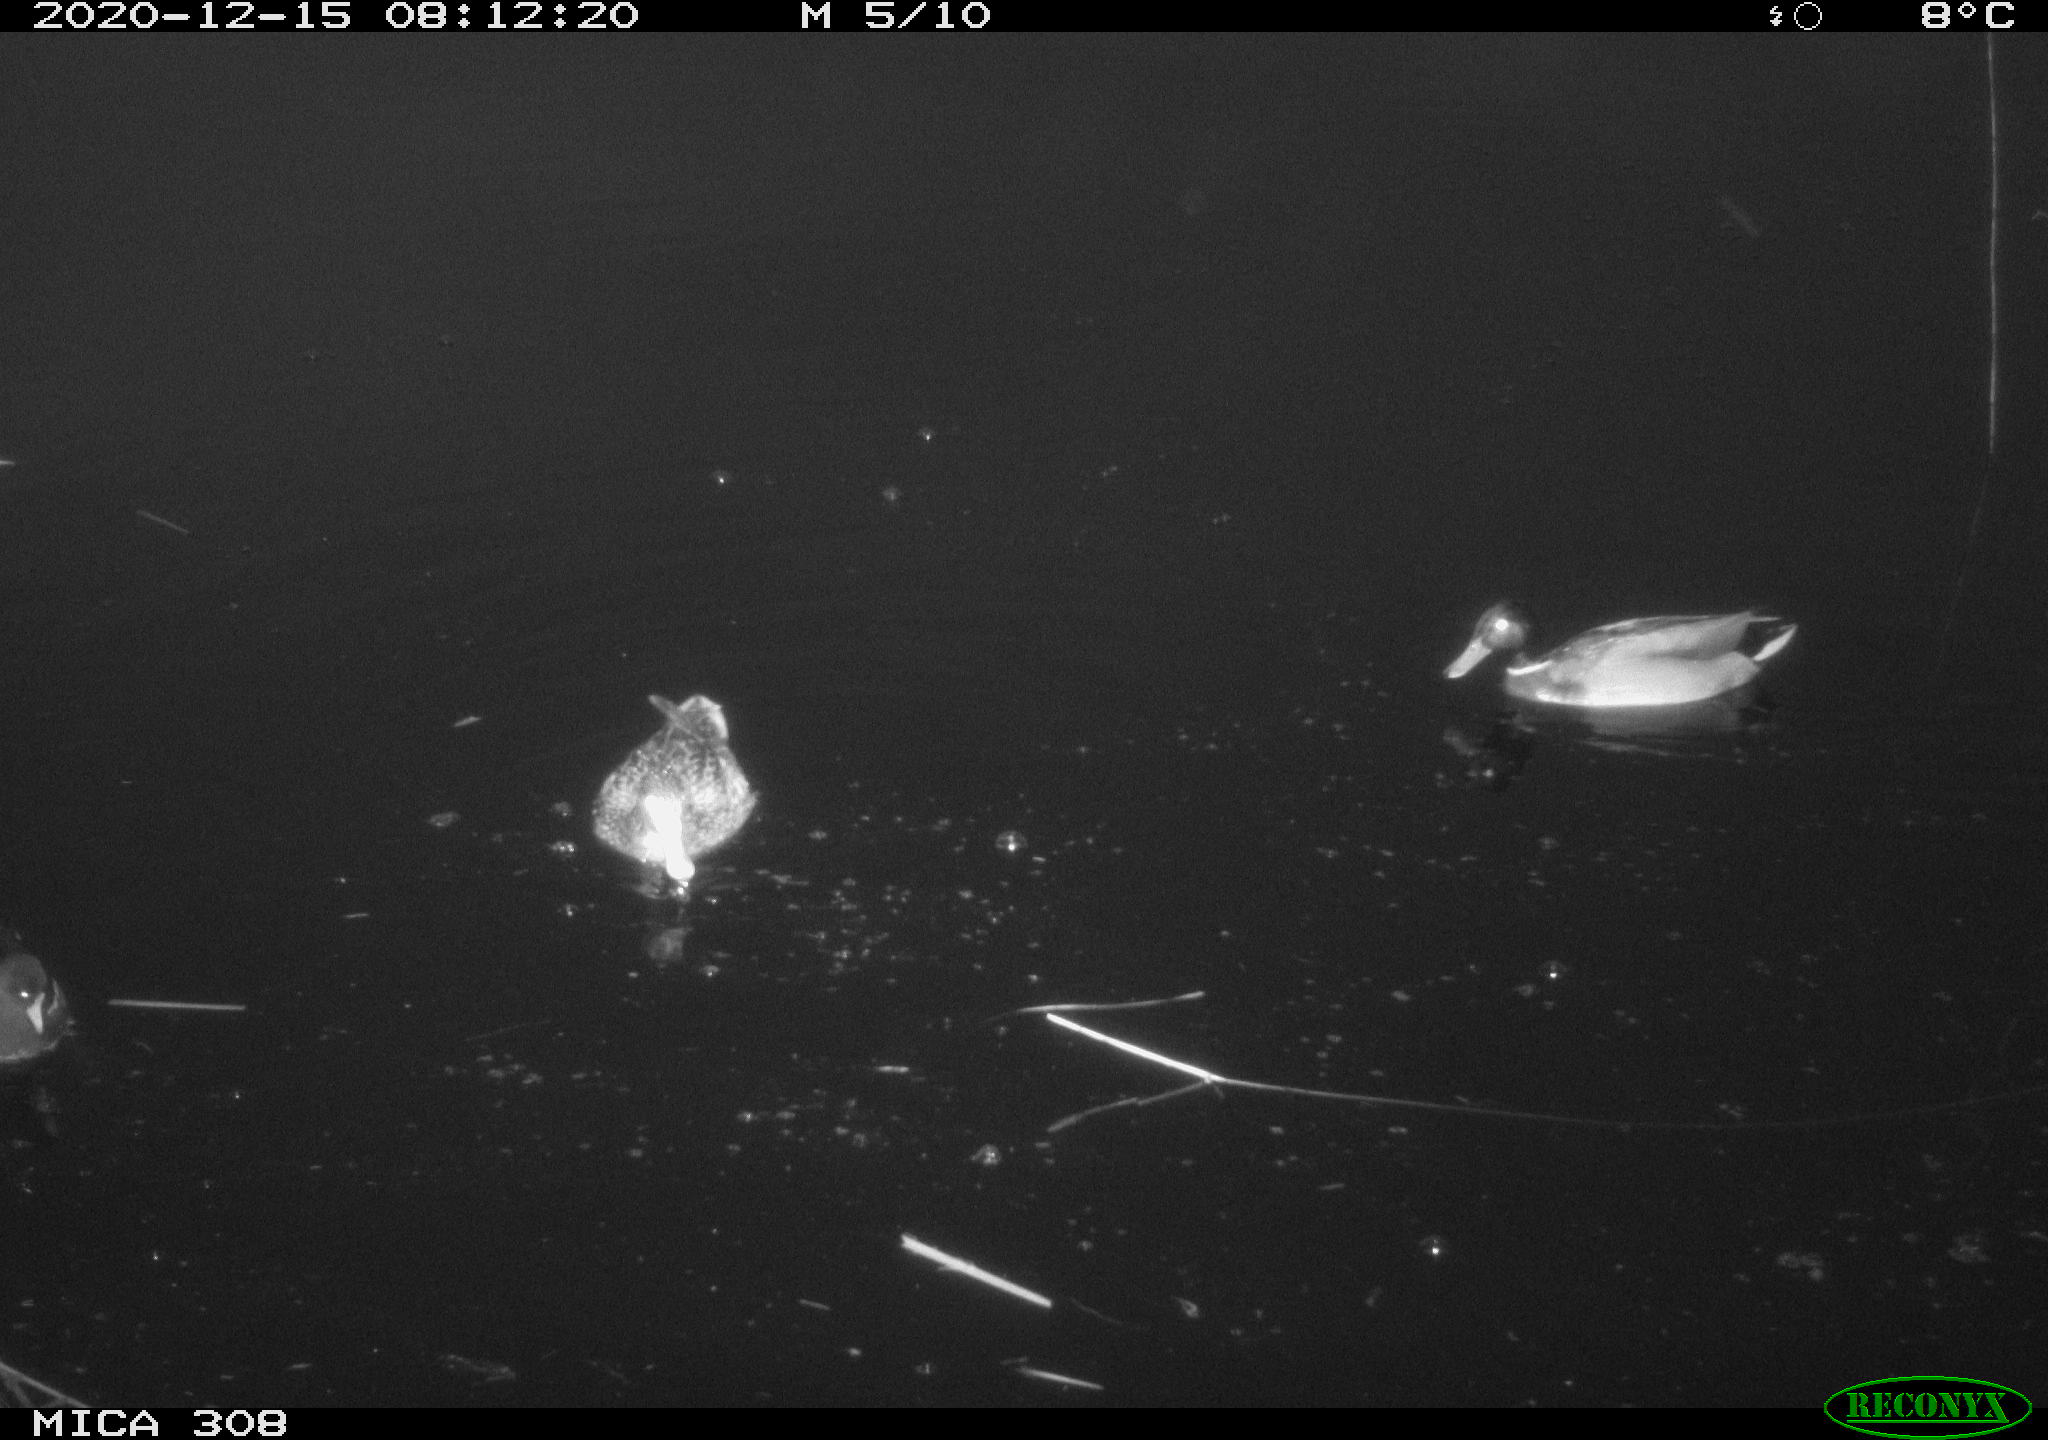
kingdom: Animalia
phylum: Chordata
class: Aves
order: Anseriformes
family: Anatidae
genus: Anas
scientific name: Anas platyrhynchos
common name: Mallard
